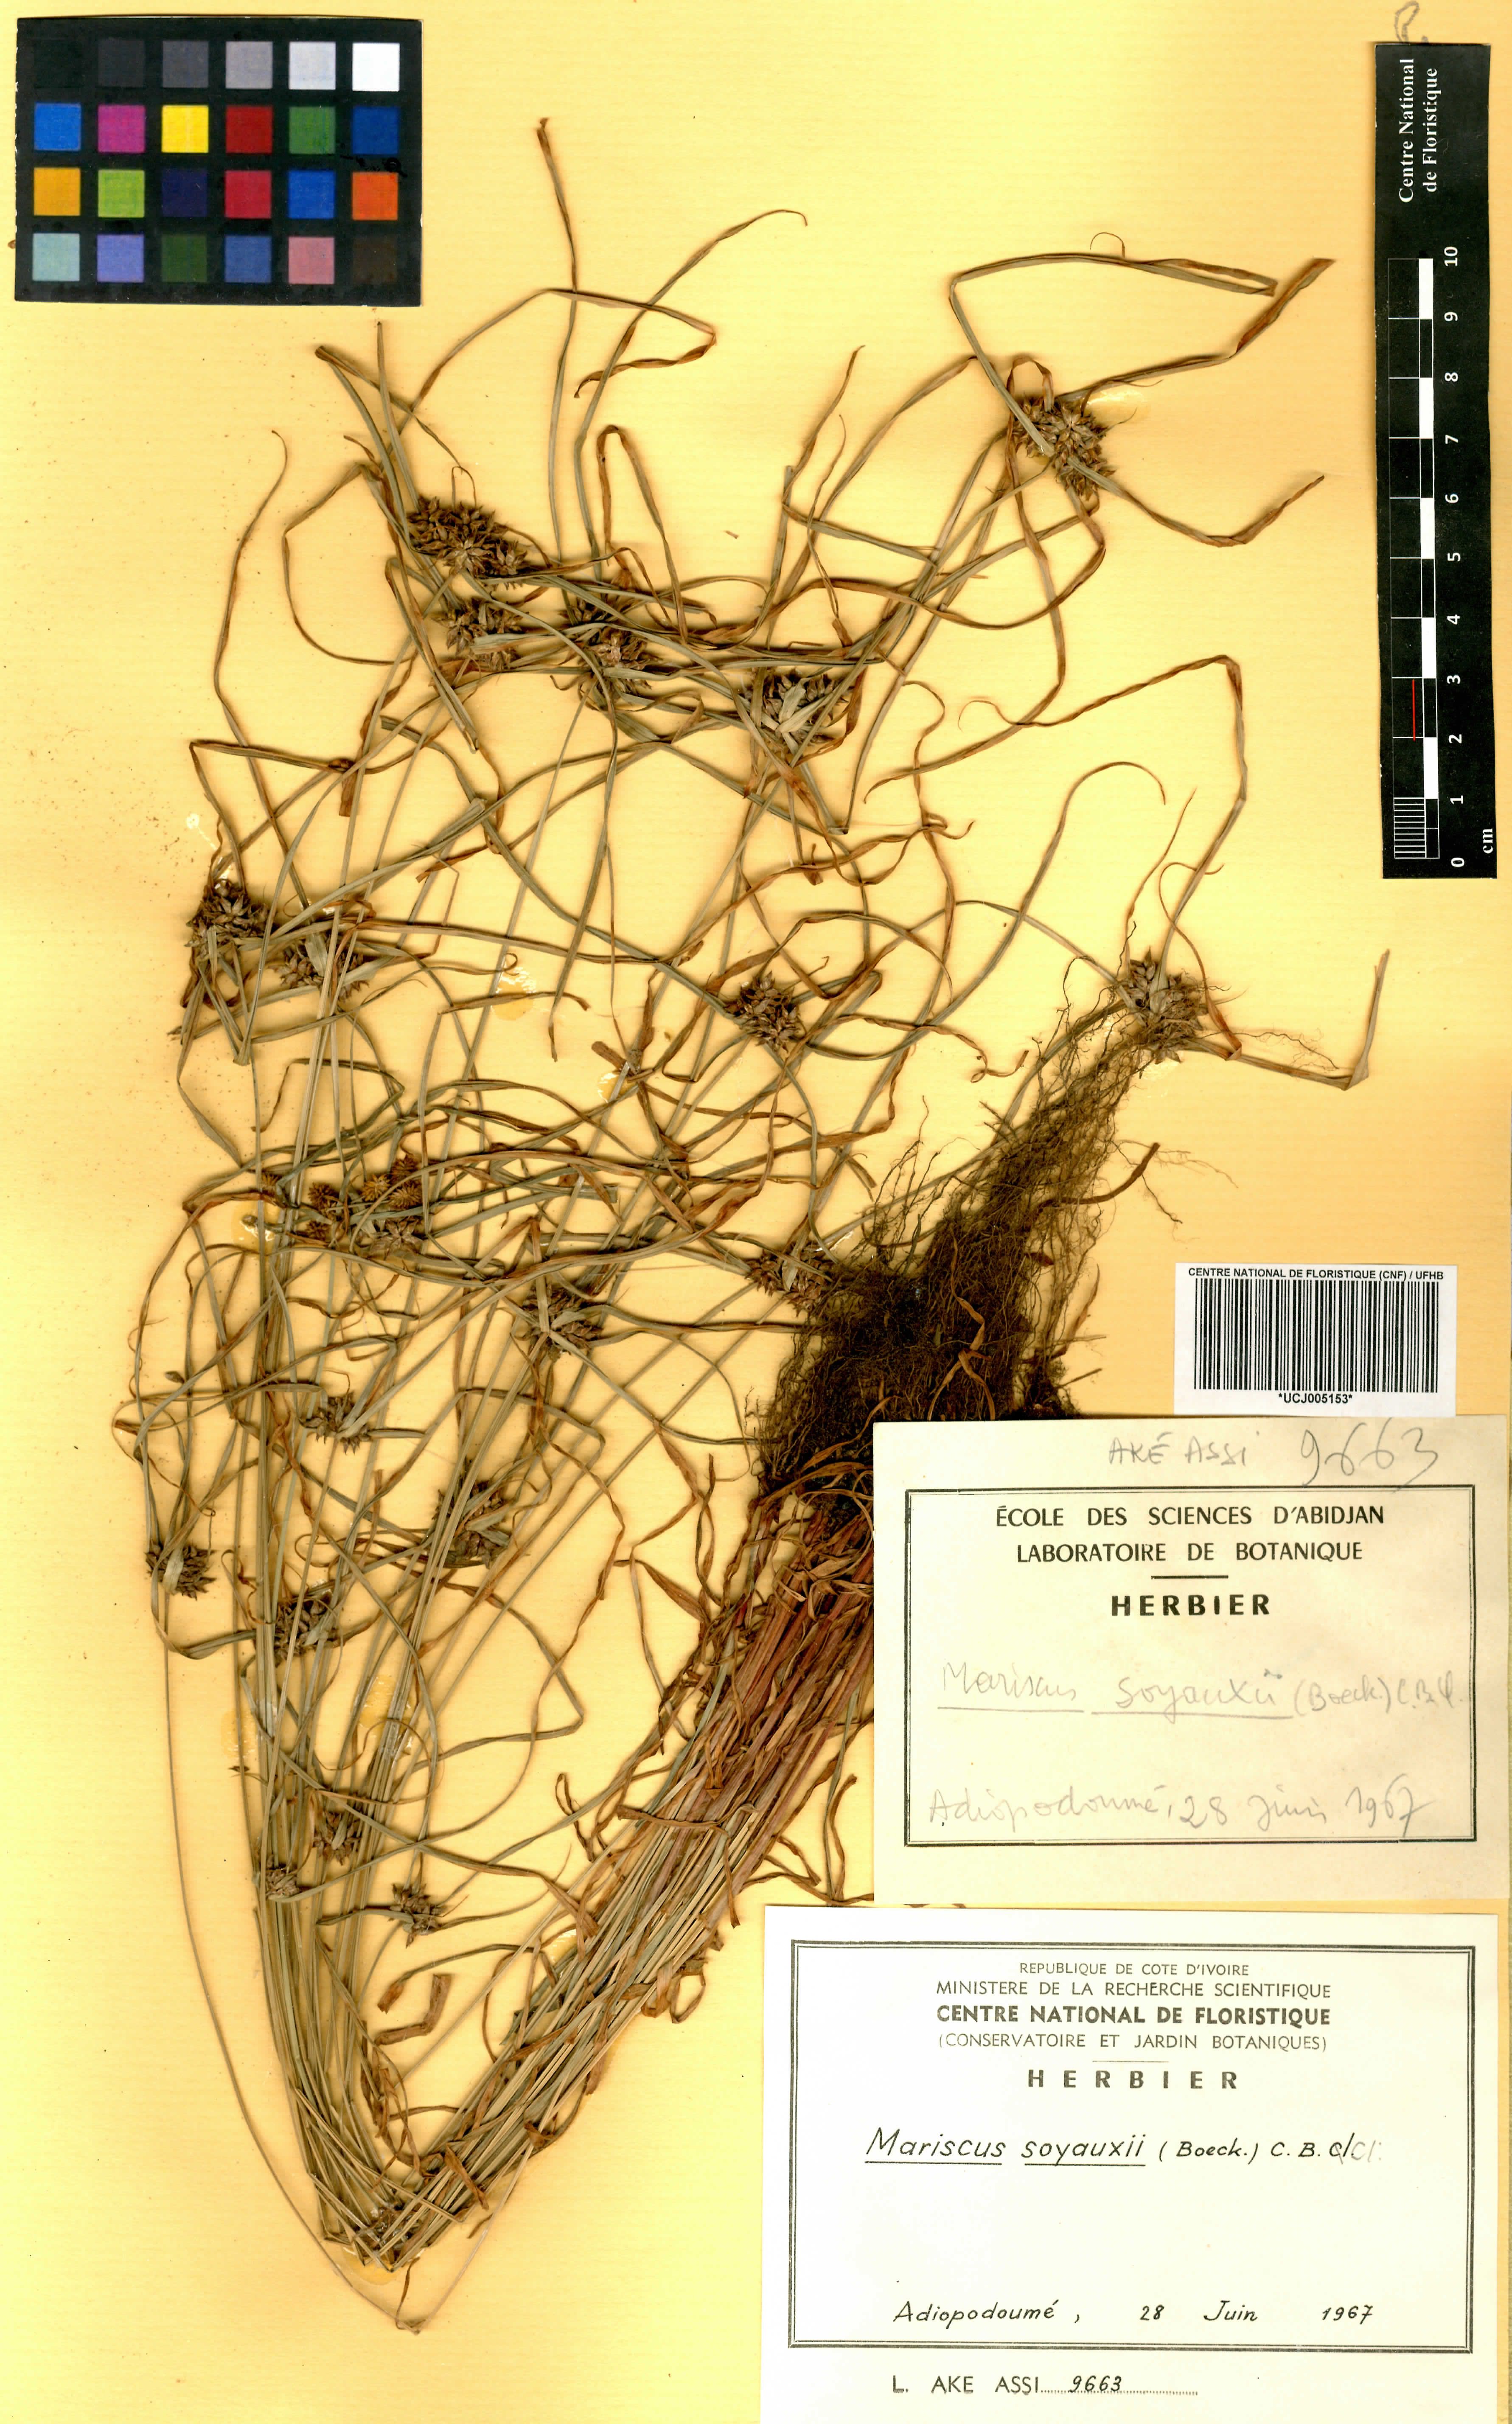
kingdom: Plantae
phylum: Tracheophyta
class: Liliopsida
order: Poales
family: Cyperaceae
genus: Cyperus
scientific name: Cyperus soyauxii
